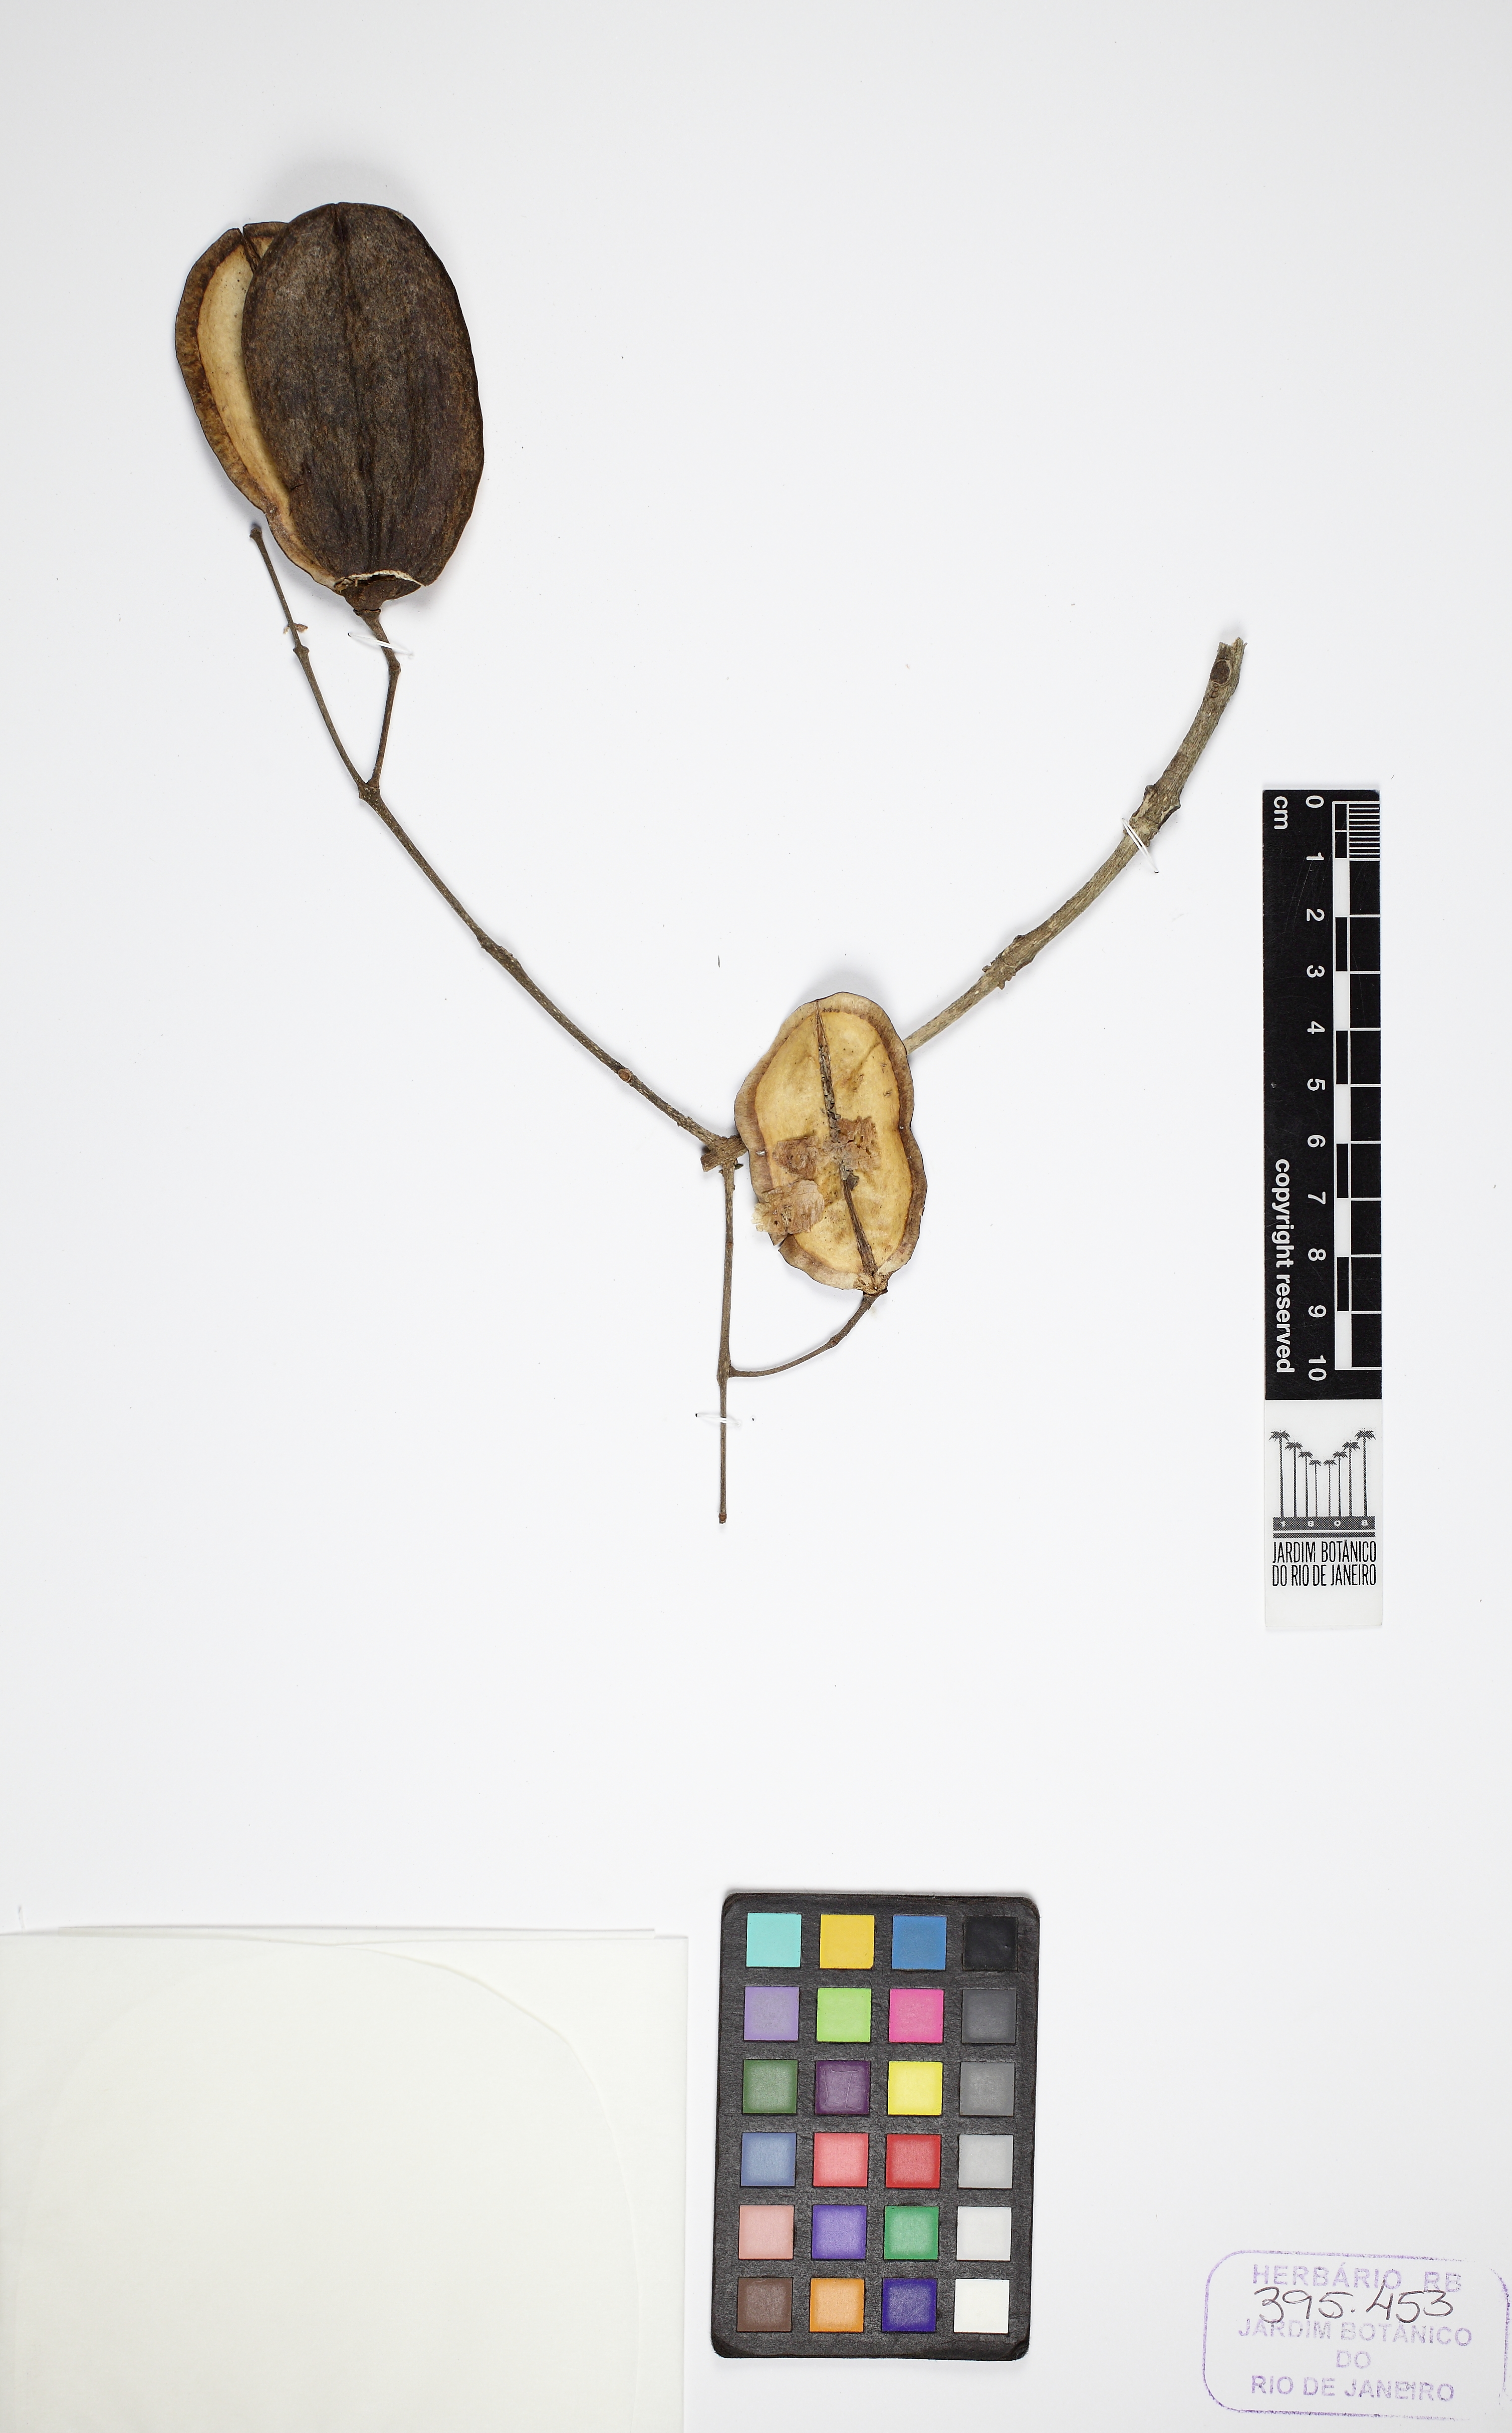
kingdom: Plantae
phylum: Tracheophyta
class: Magnoliopsida
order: Lamiales
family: Bignoniaceae
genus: Jacaranda
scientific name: Jacaranda puberula
